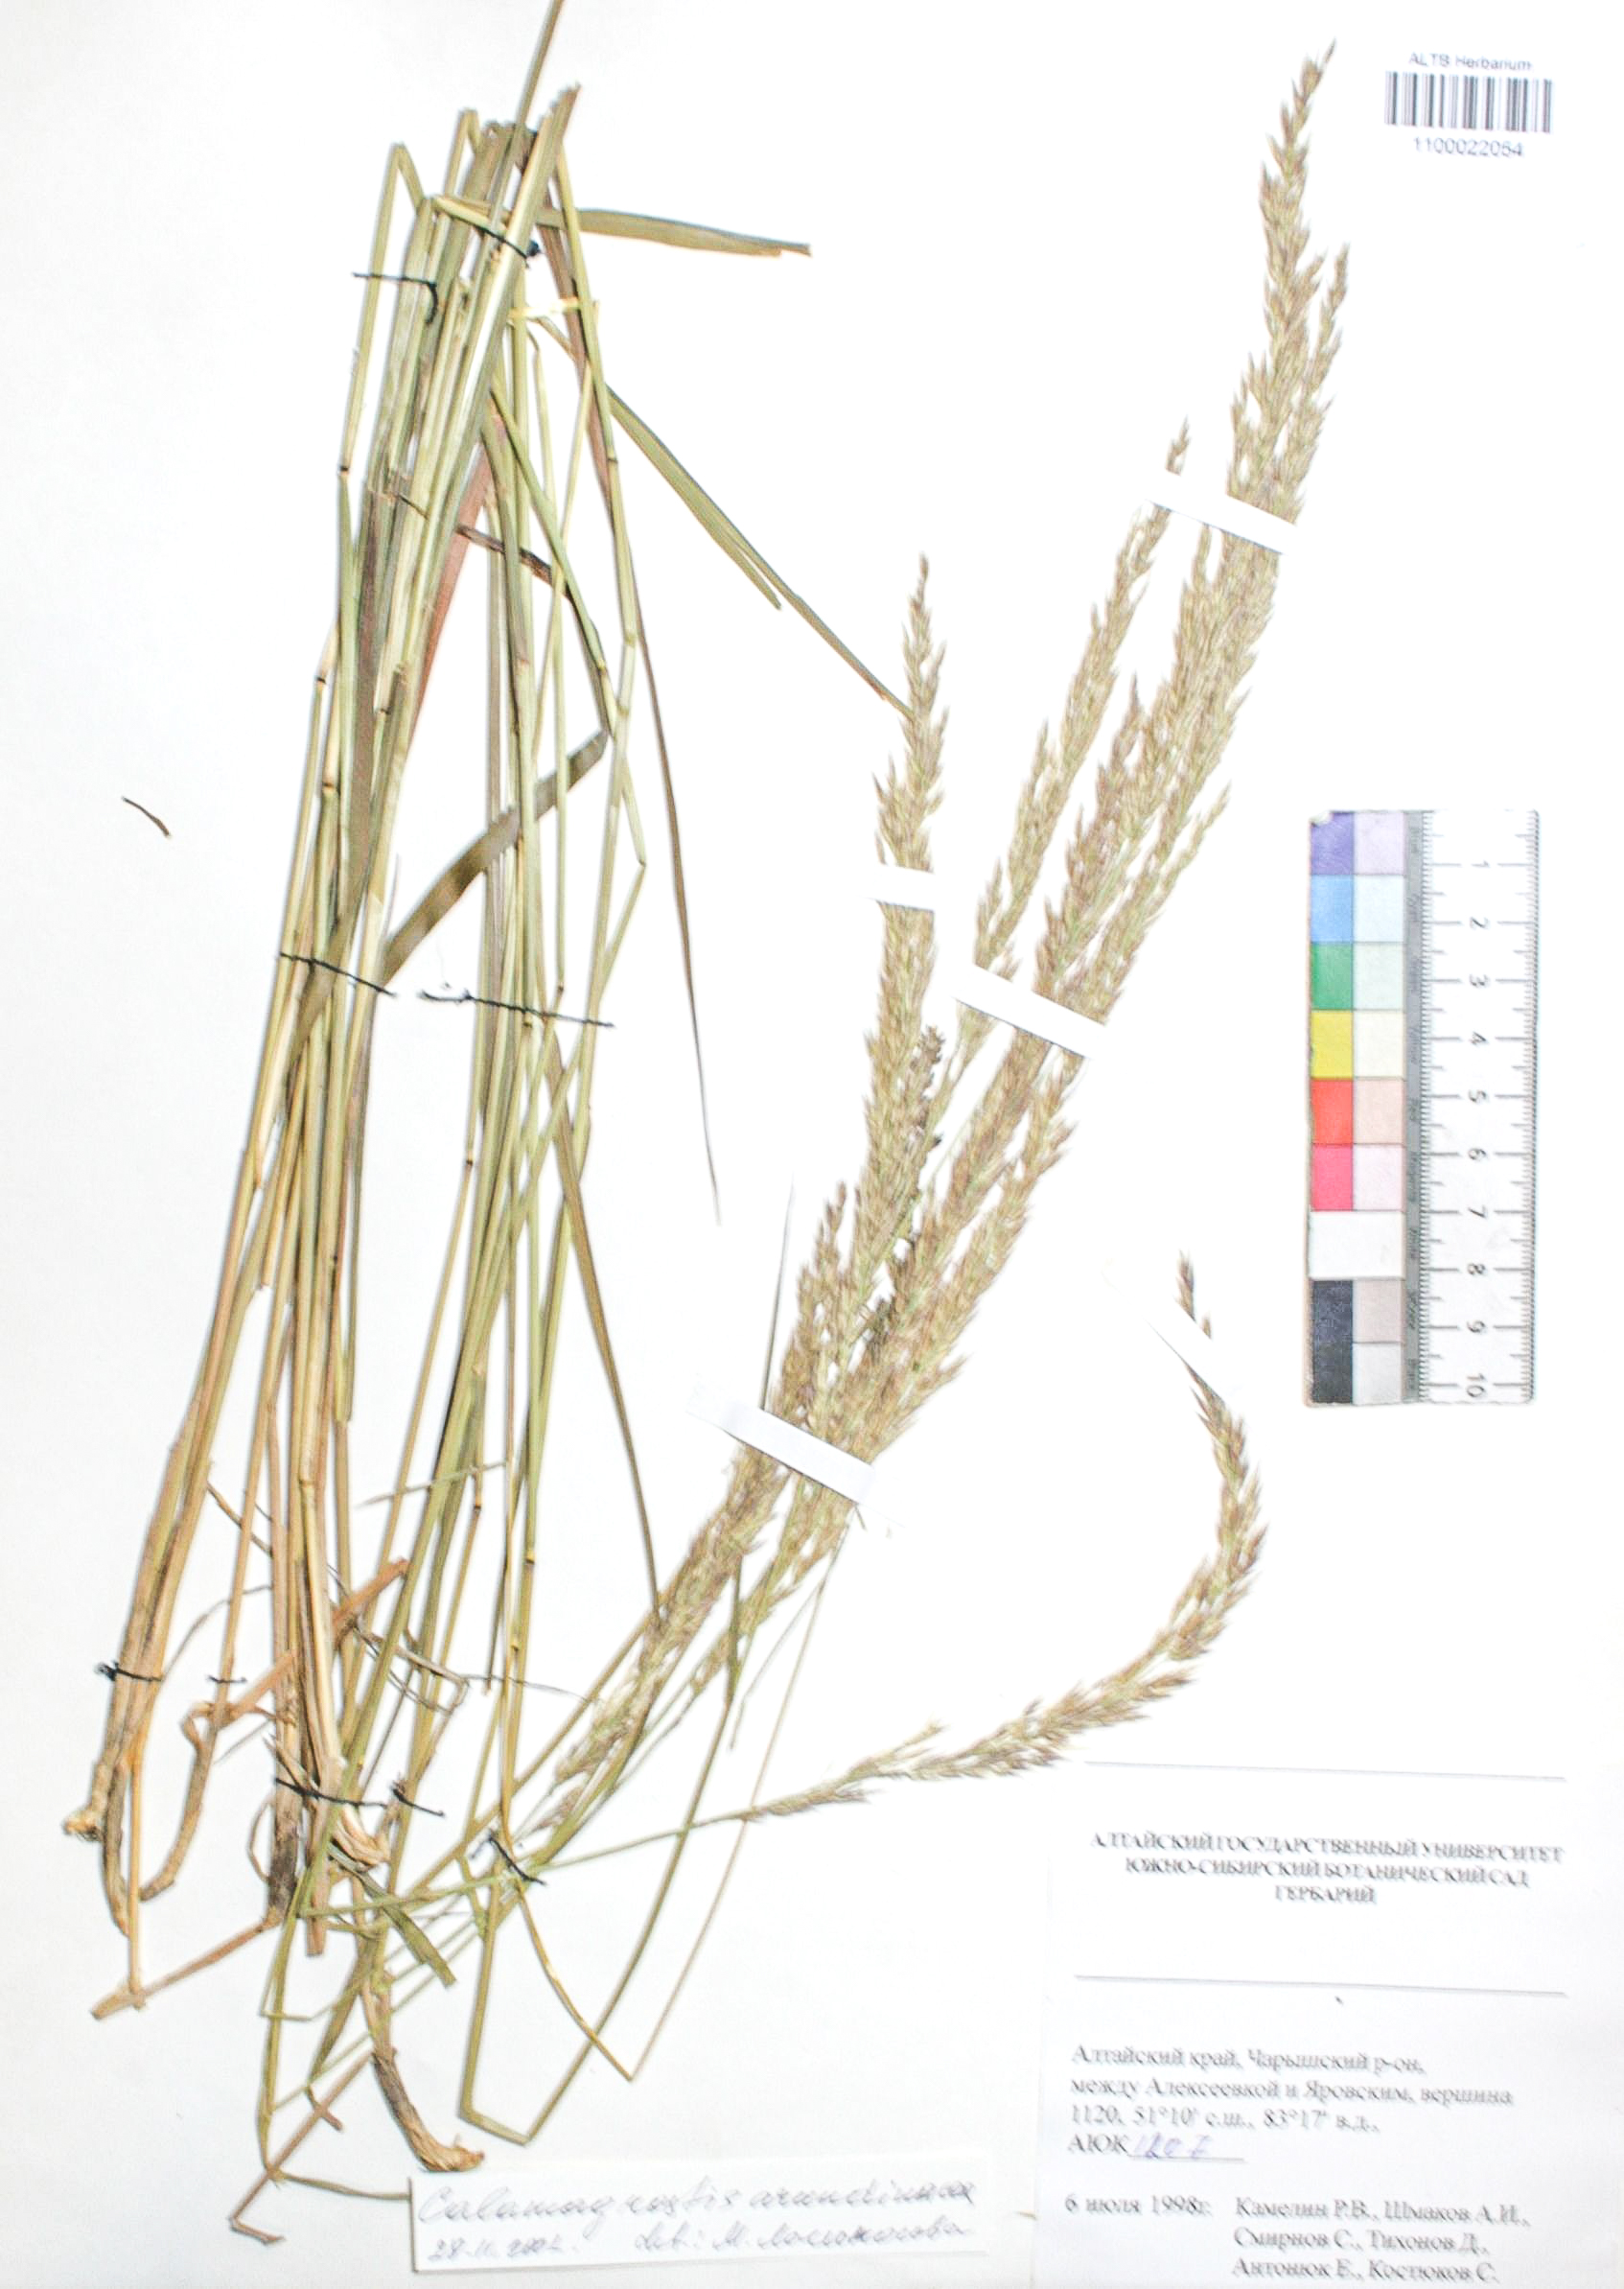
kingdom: Plantae
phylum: Tracheophyta
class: Liliopsida
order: Poales
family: Poaceae
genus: Calamagrostis
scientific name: Calamagrostis arundinacea
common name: Metskastik
